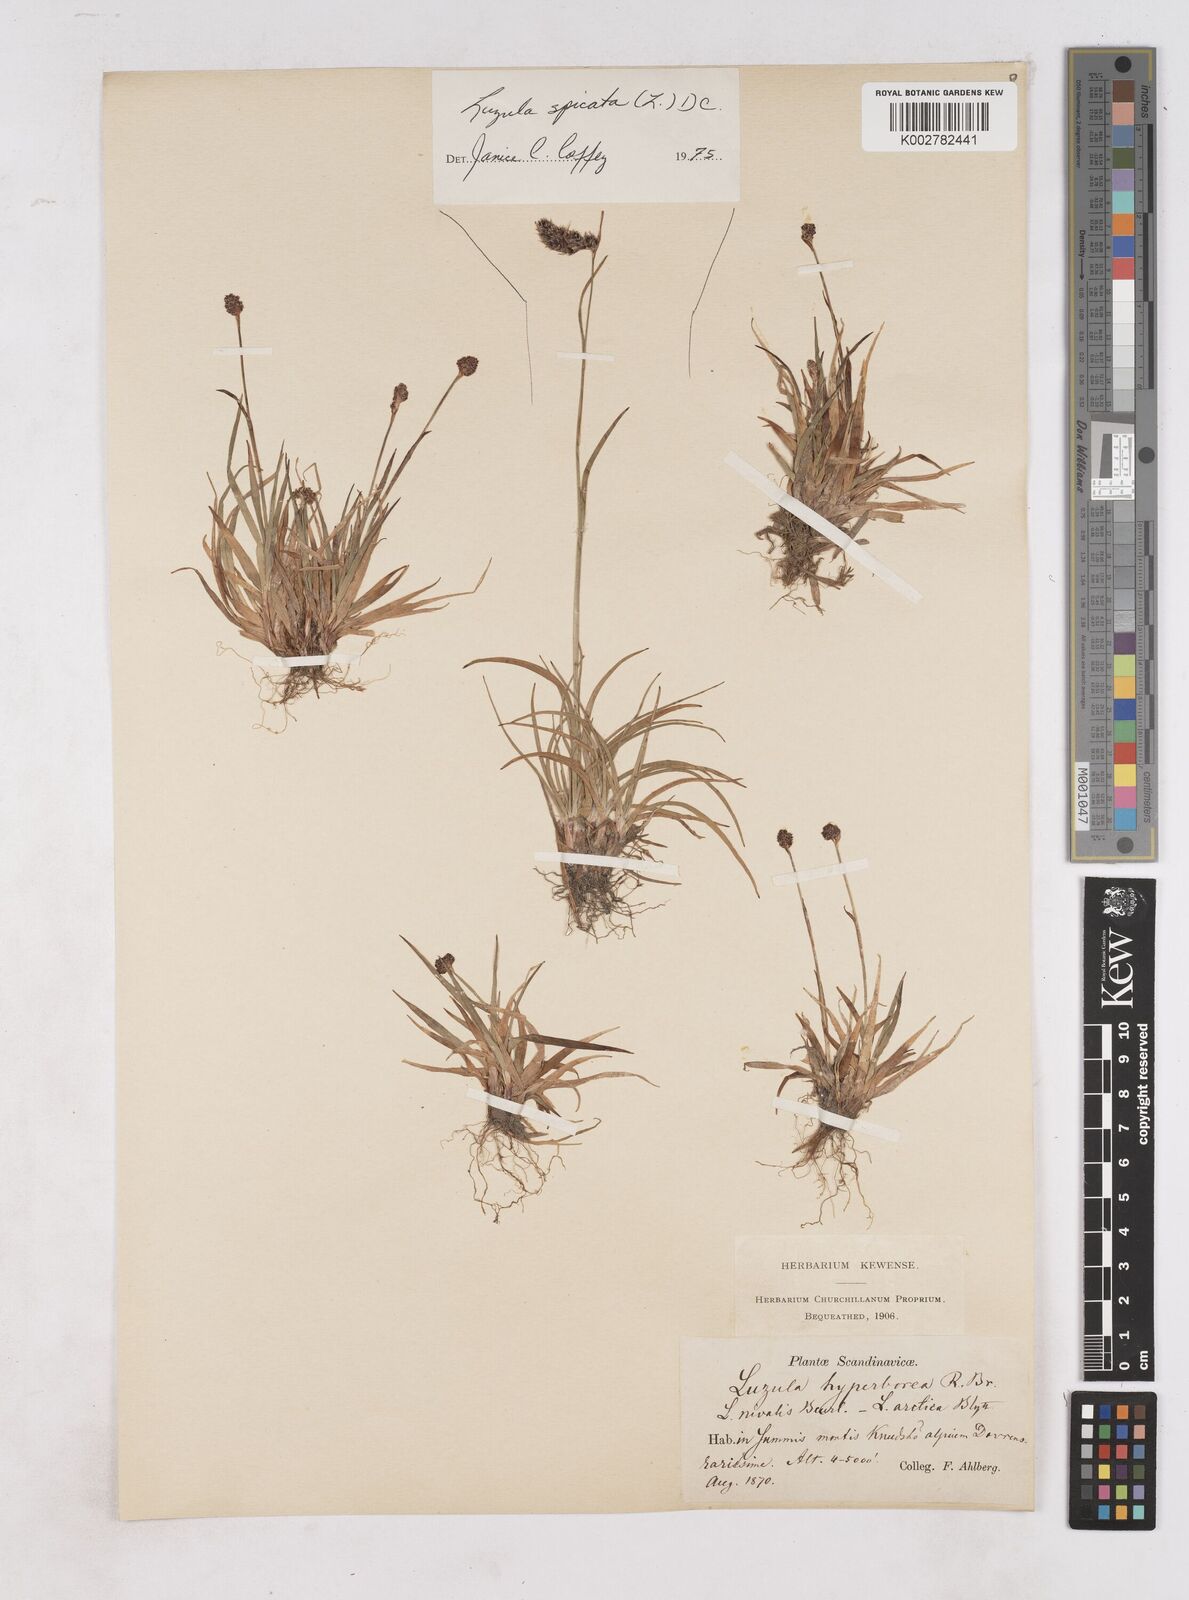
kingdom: Plantae
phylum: Tracheophyta
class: Liliopsida
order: Poales
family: Juncaceae
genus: Luzula
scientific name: Luzula nivalis
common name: Arctic woodrush
